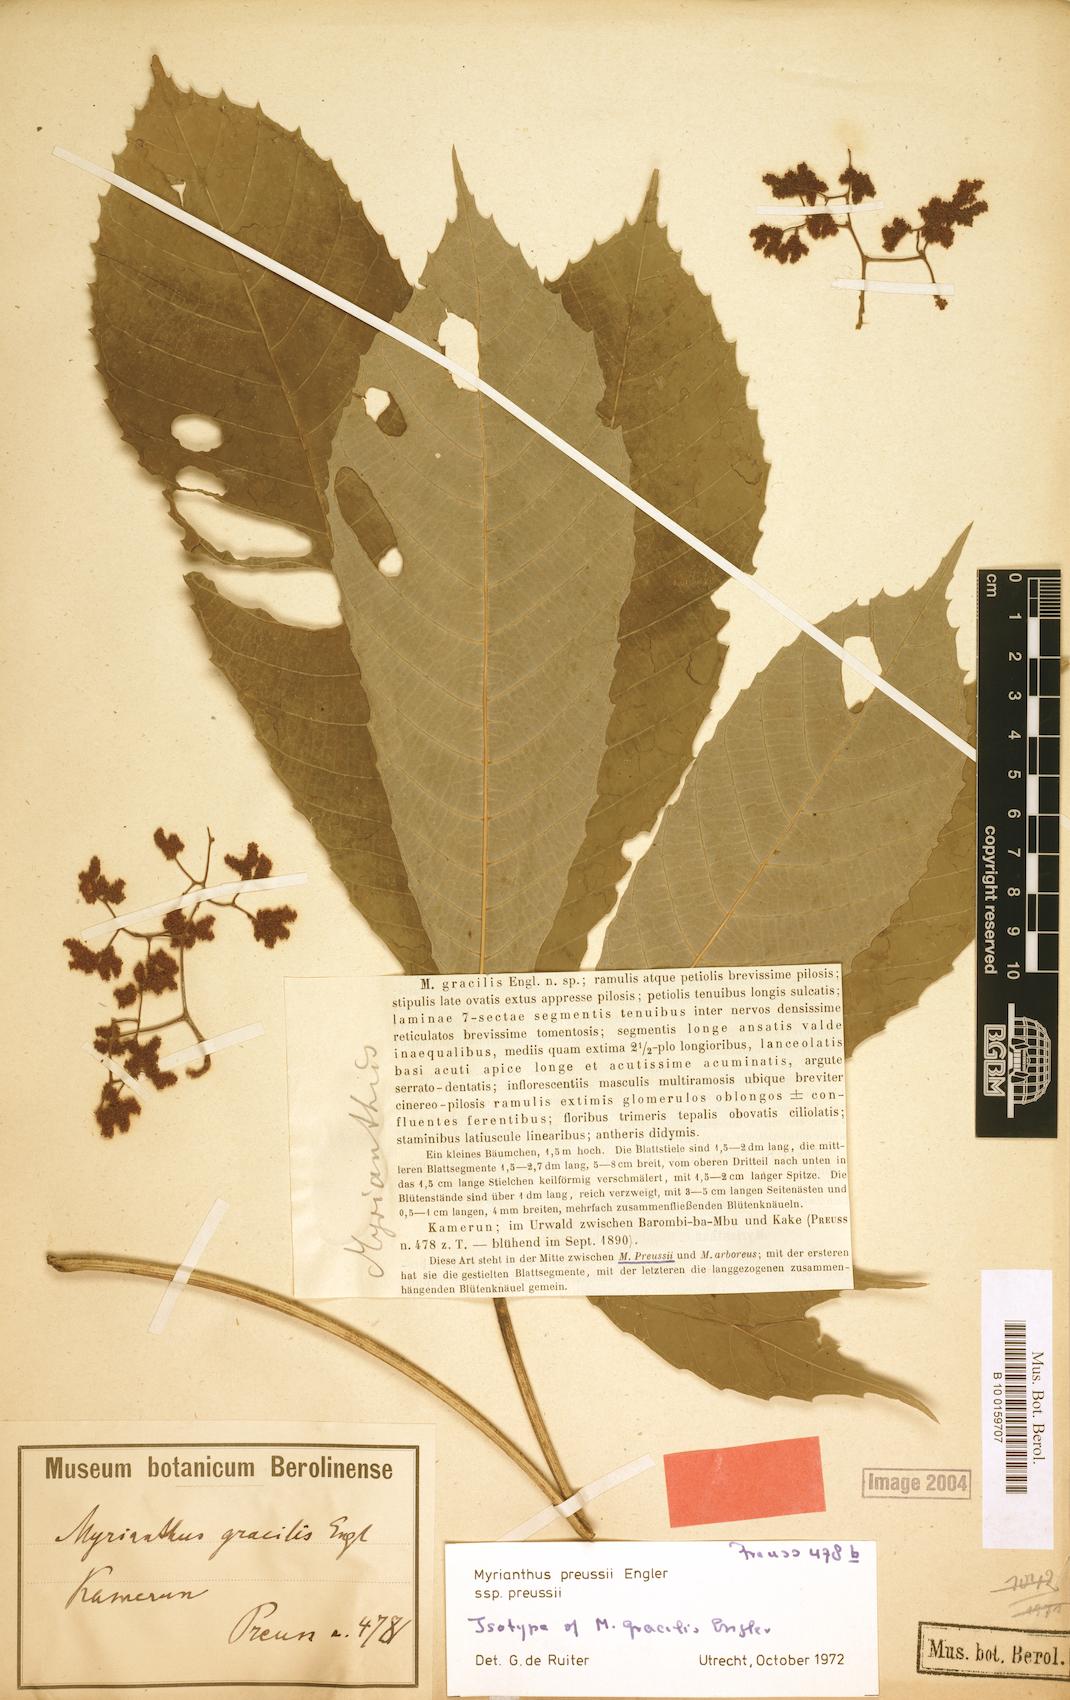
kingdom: Plantae
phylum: Tracheophyta
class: Magnoliopsida
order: Rosales
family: Urticaceae
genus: Myrianthus
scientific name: Myrianthus preussii
